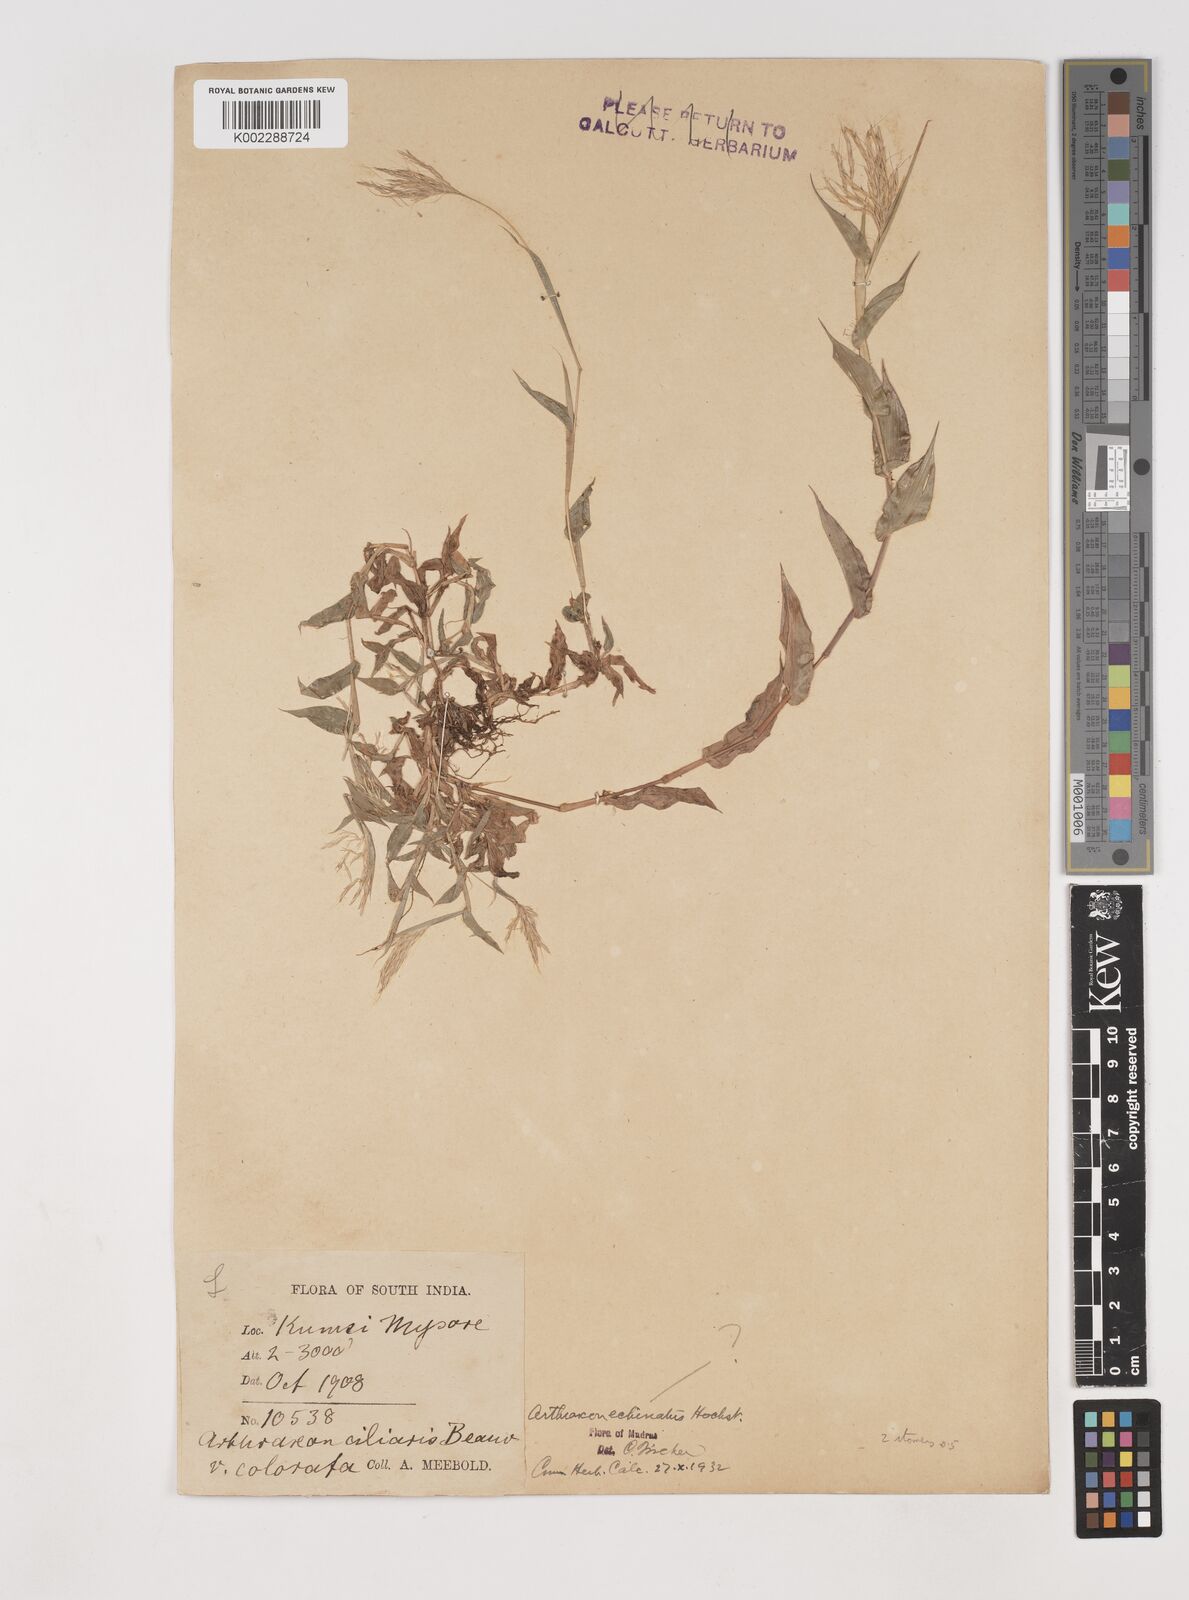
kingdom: Plantae
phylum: Tracheophyta
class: Liliopsida
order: Poales
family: Poaceae
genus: Arthraxon
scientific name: Arthraxon hispidus
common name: Small carpgrass
